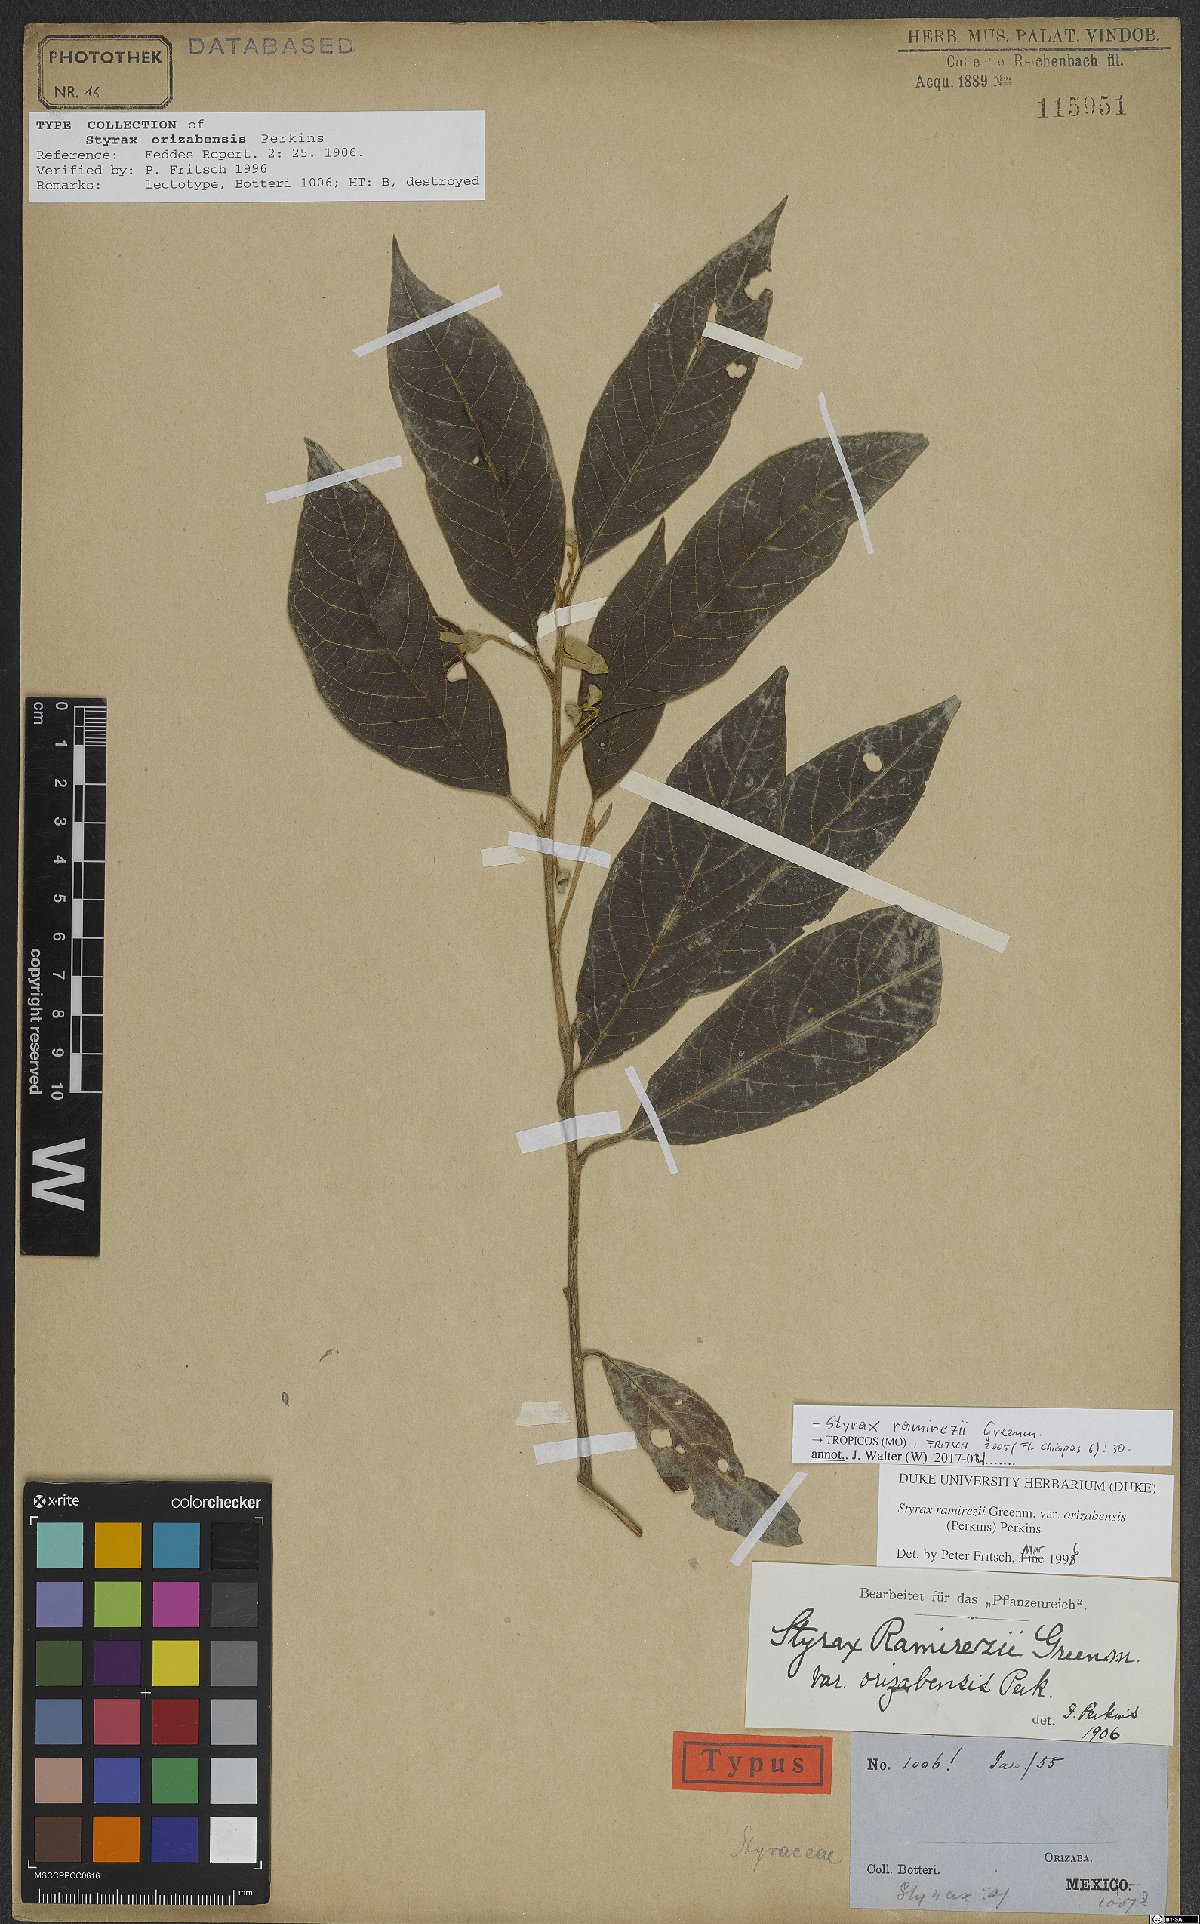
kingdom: Plantae
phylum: Tracheophyta
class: Magnoliopsida
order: Ericales
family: Styracaceae
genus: Styrax
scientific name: Styrax argenteus
